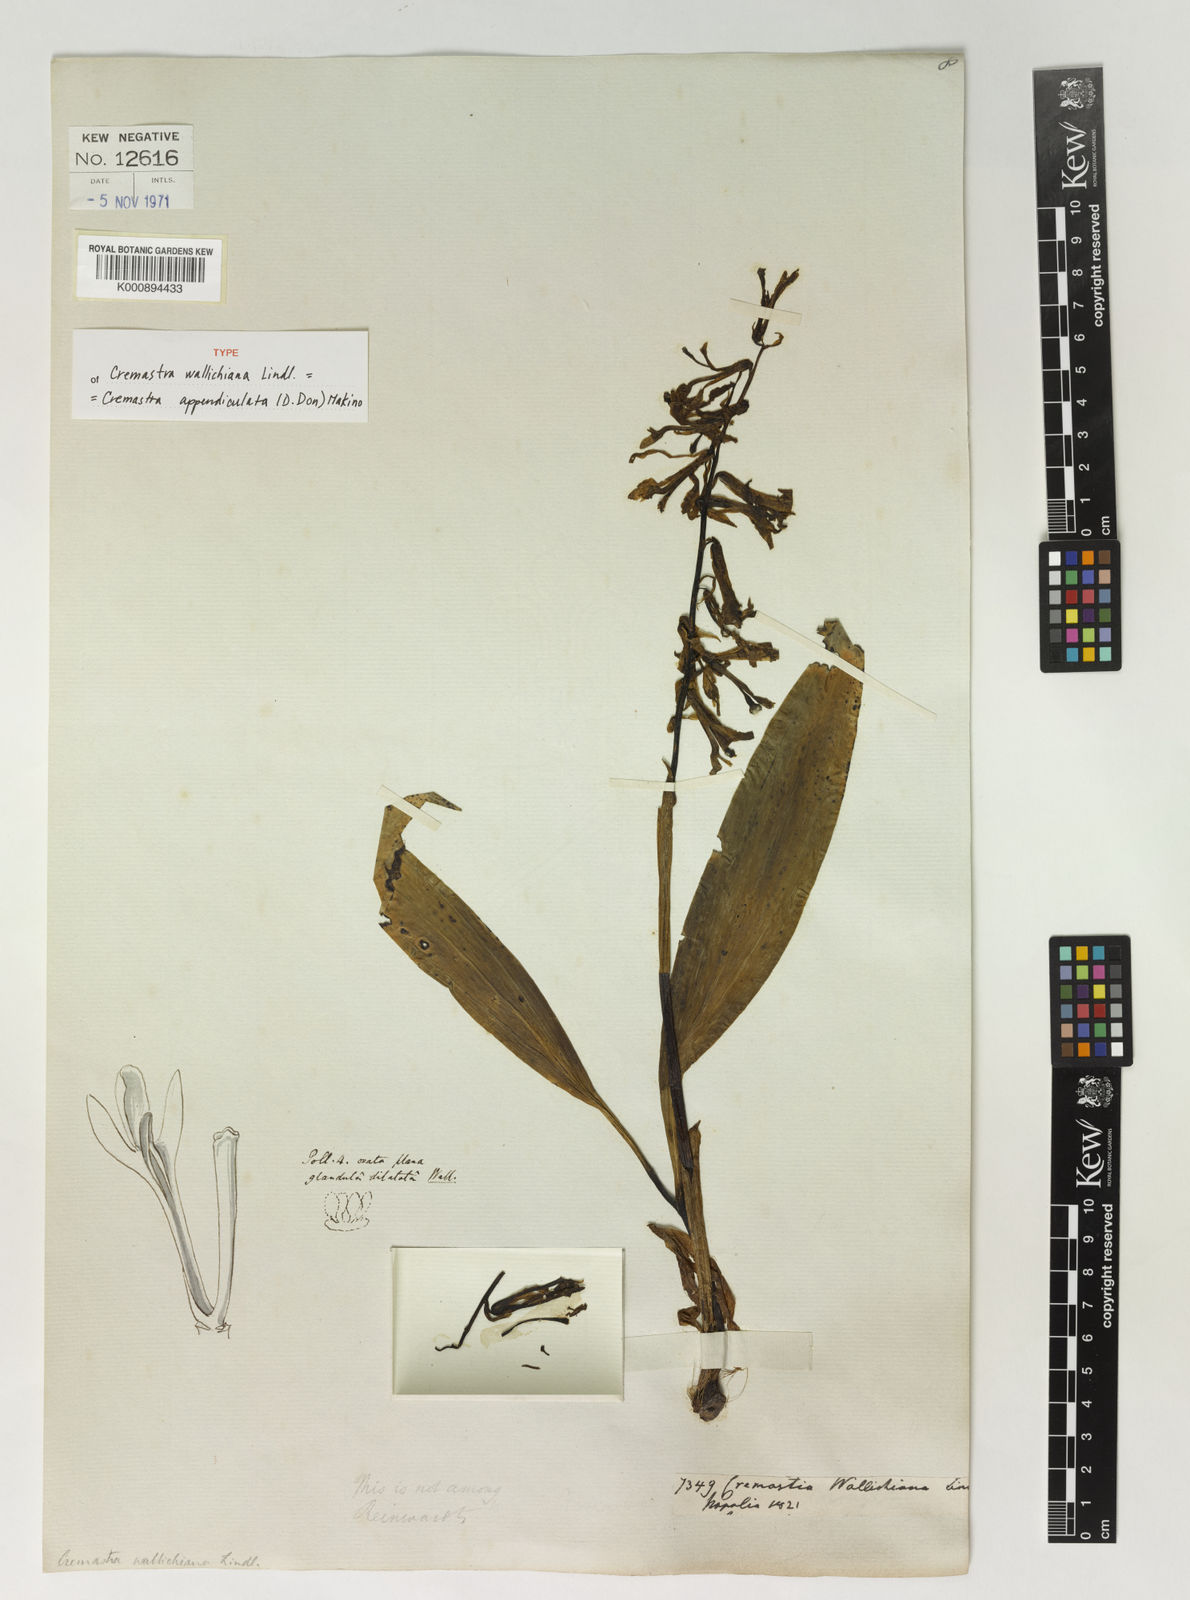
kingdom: Plantae
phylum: Tracheophyta
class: Liliopsida
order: Asparagales
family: Orchidaceae
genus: Cremastra
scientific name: Cremastra appendiculata
